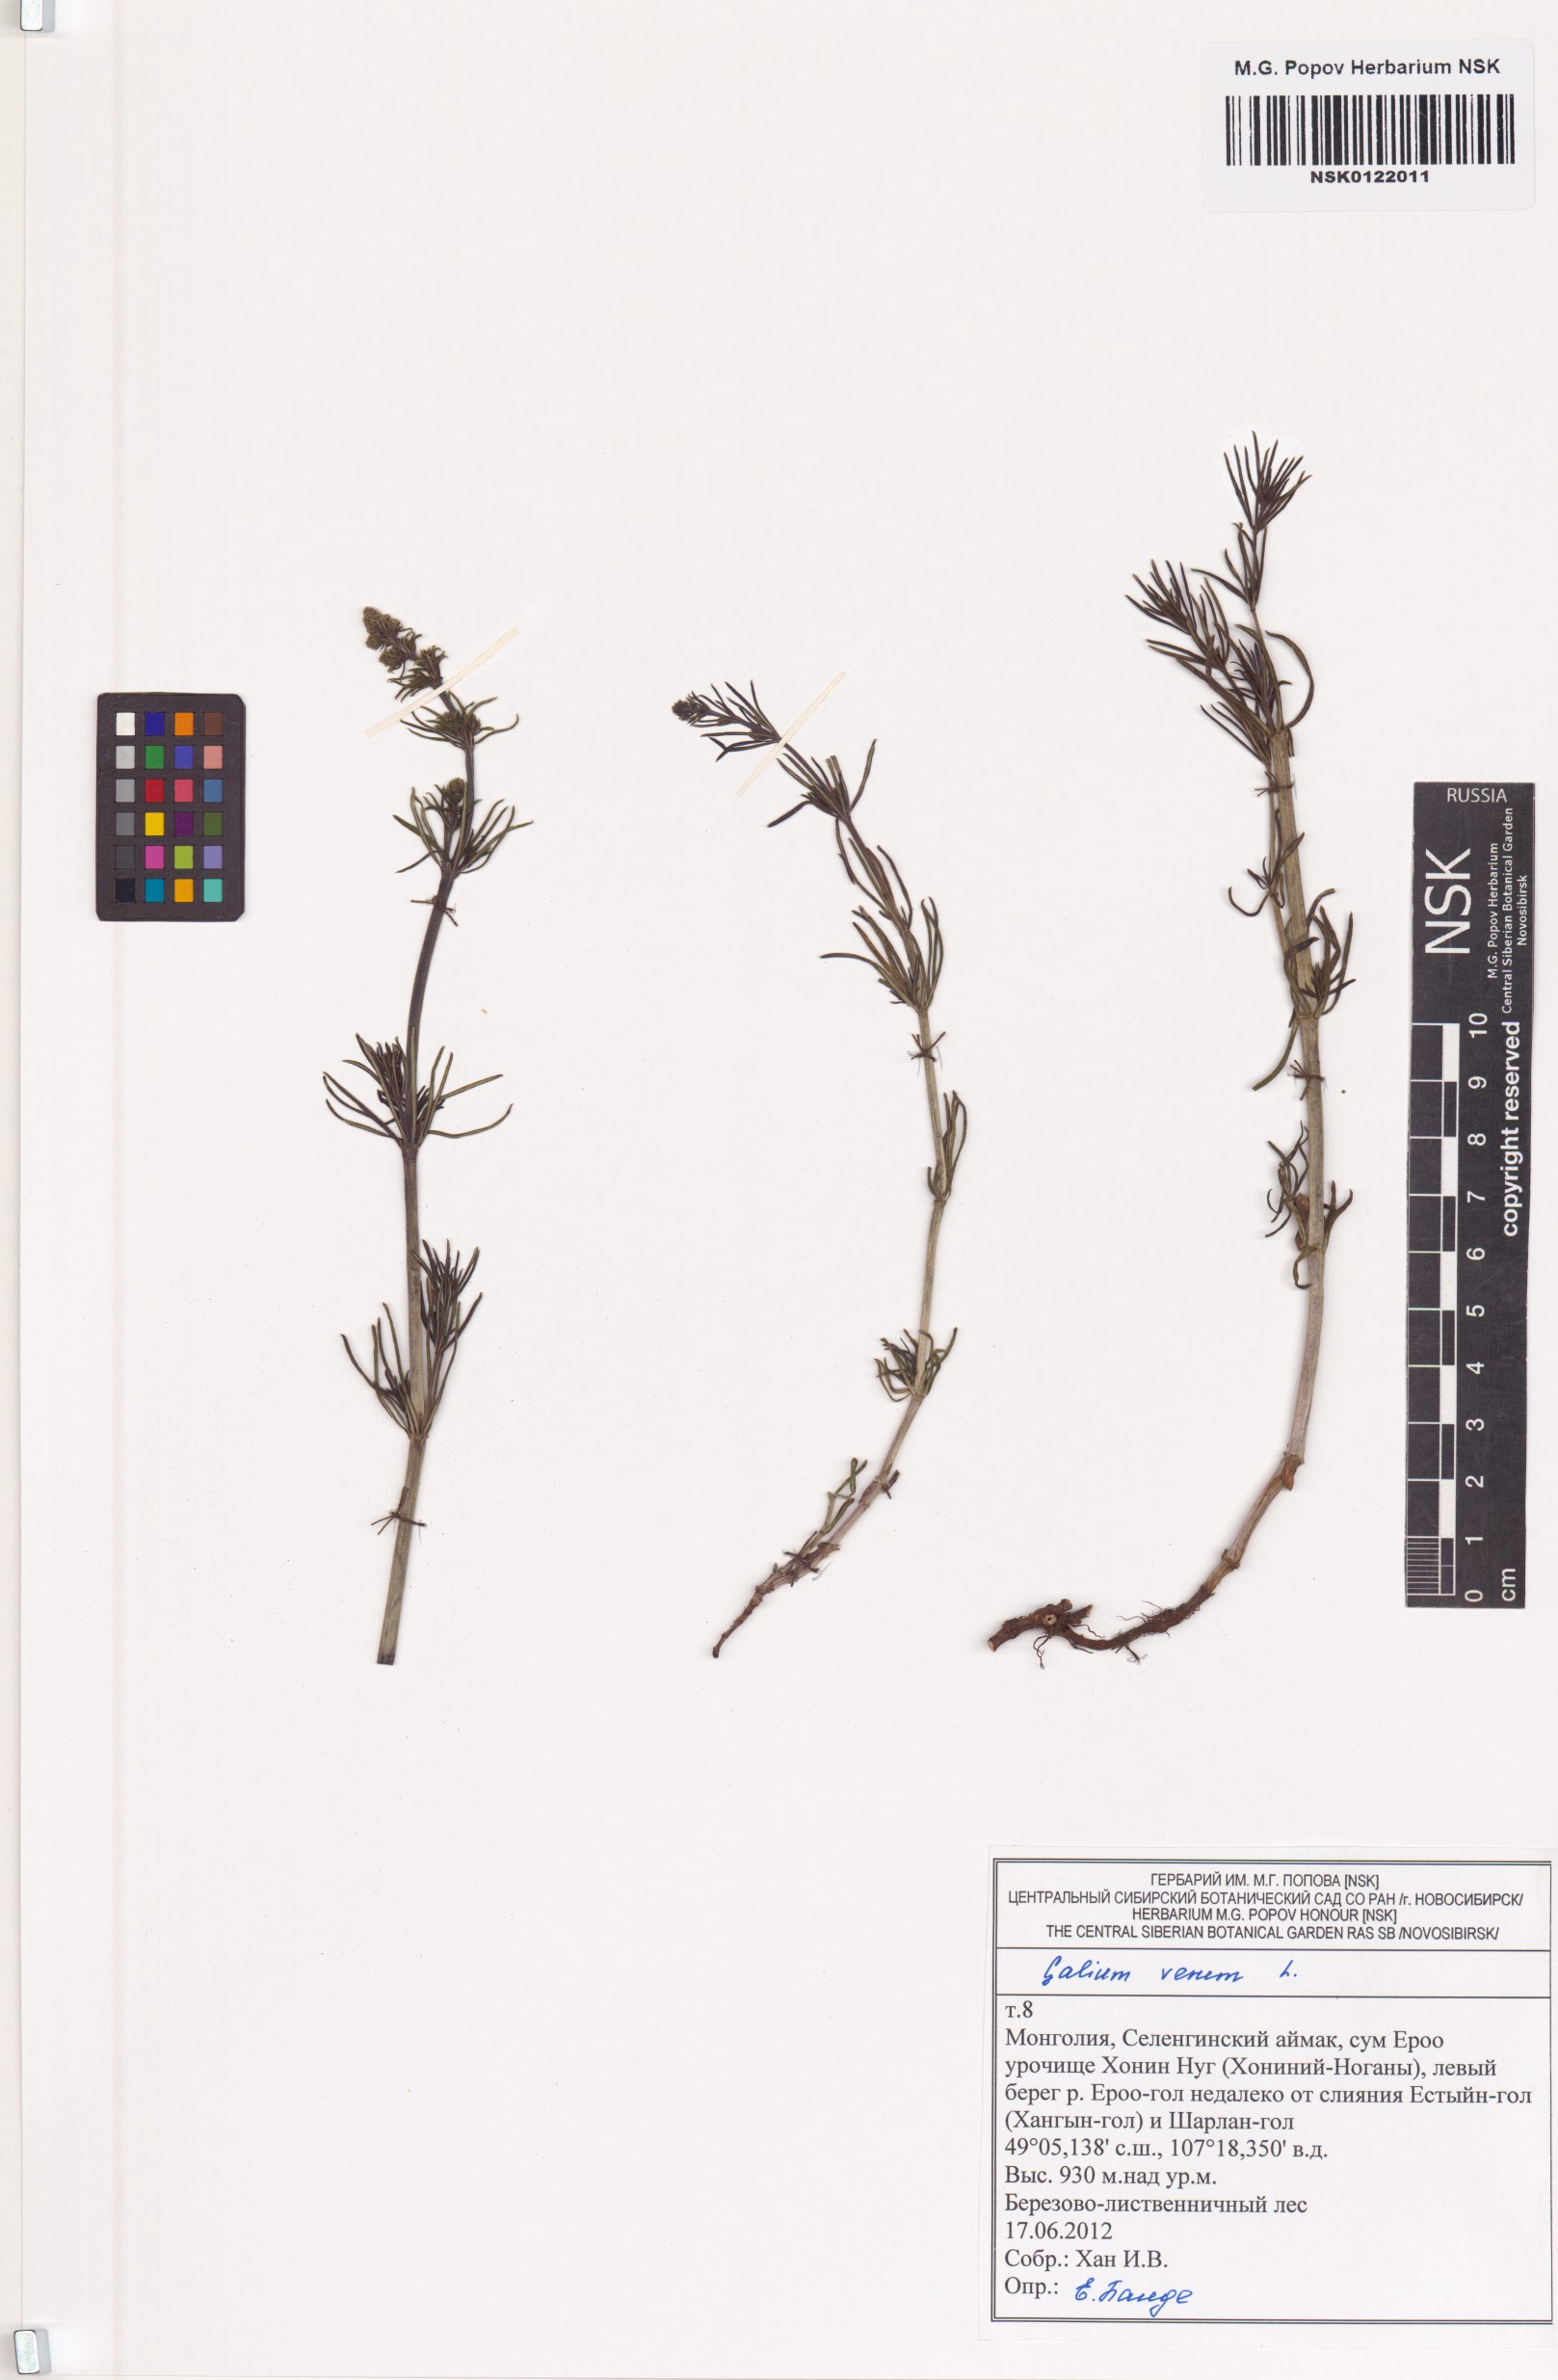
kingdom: Plantae
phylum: Tracheophyta
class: Magnoliopsida
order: Gentianales
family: Rubiaceae
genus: Galium
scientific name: Galium verum
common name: Lady's bedstraw
